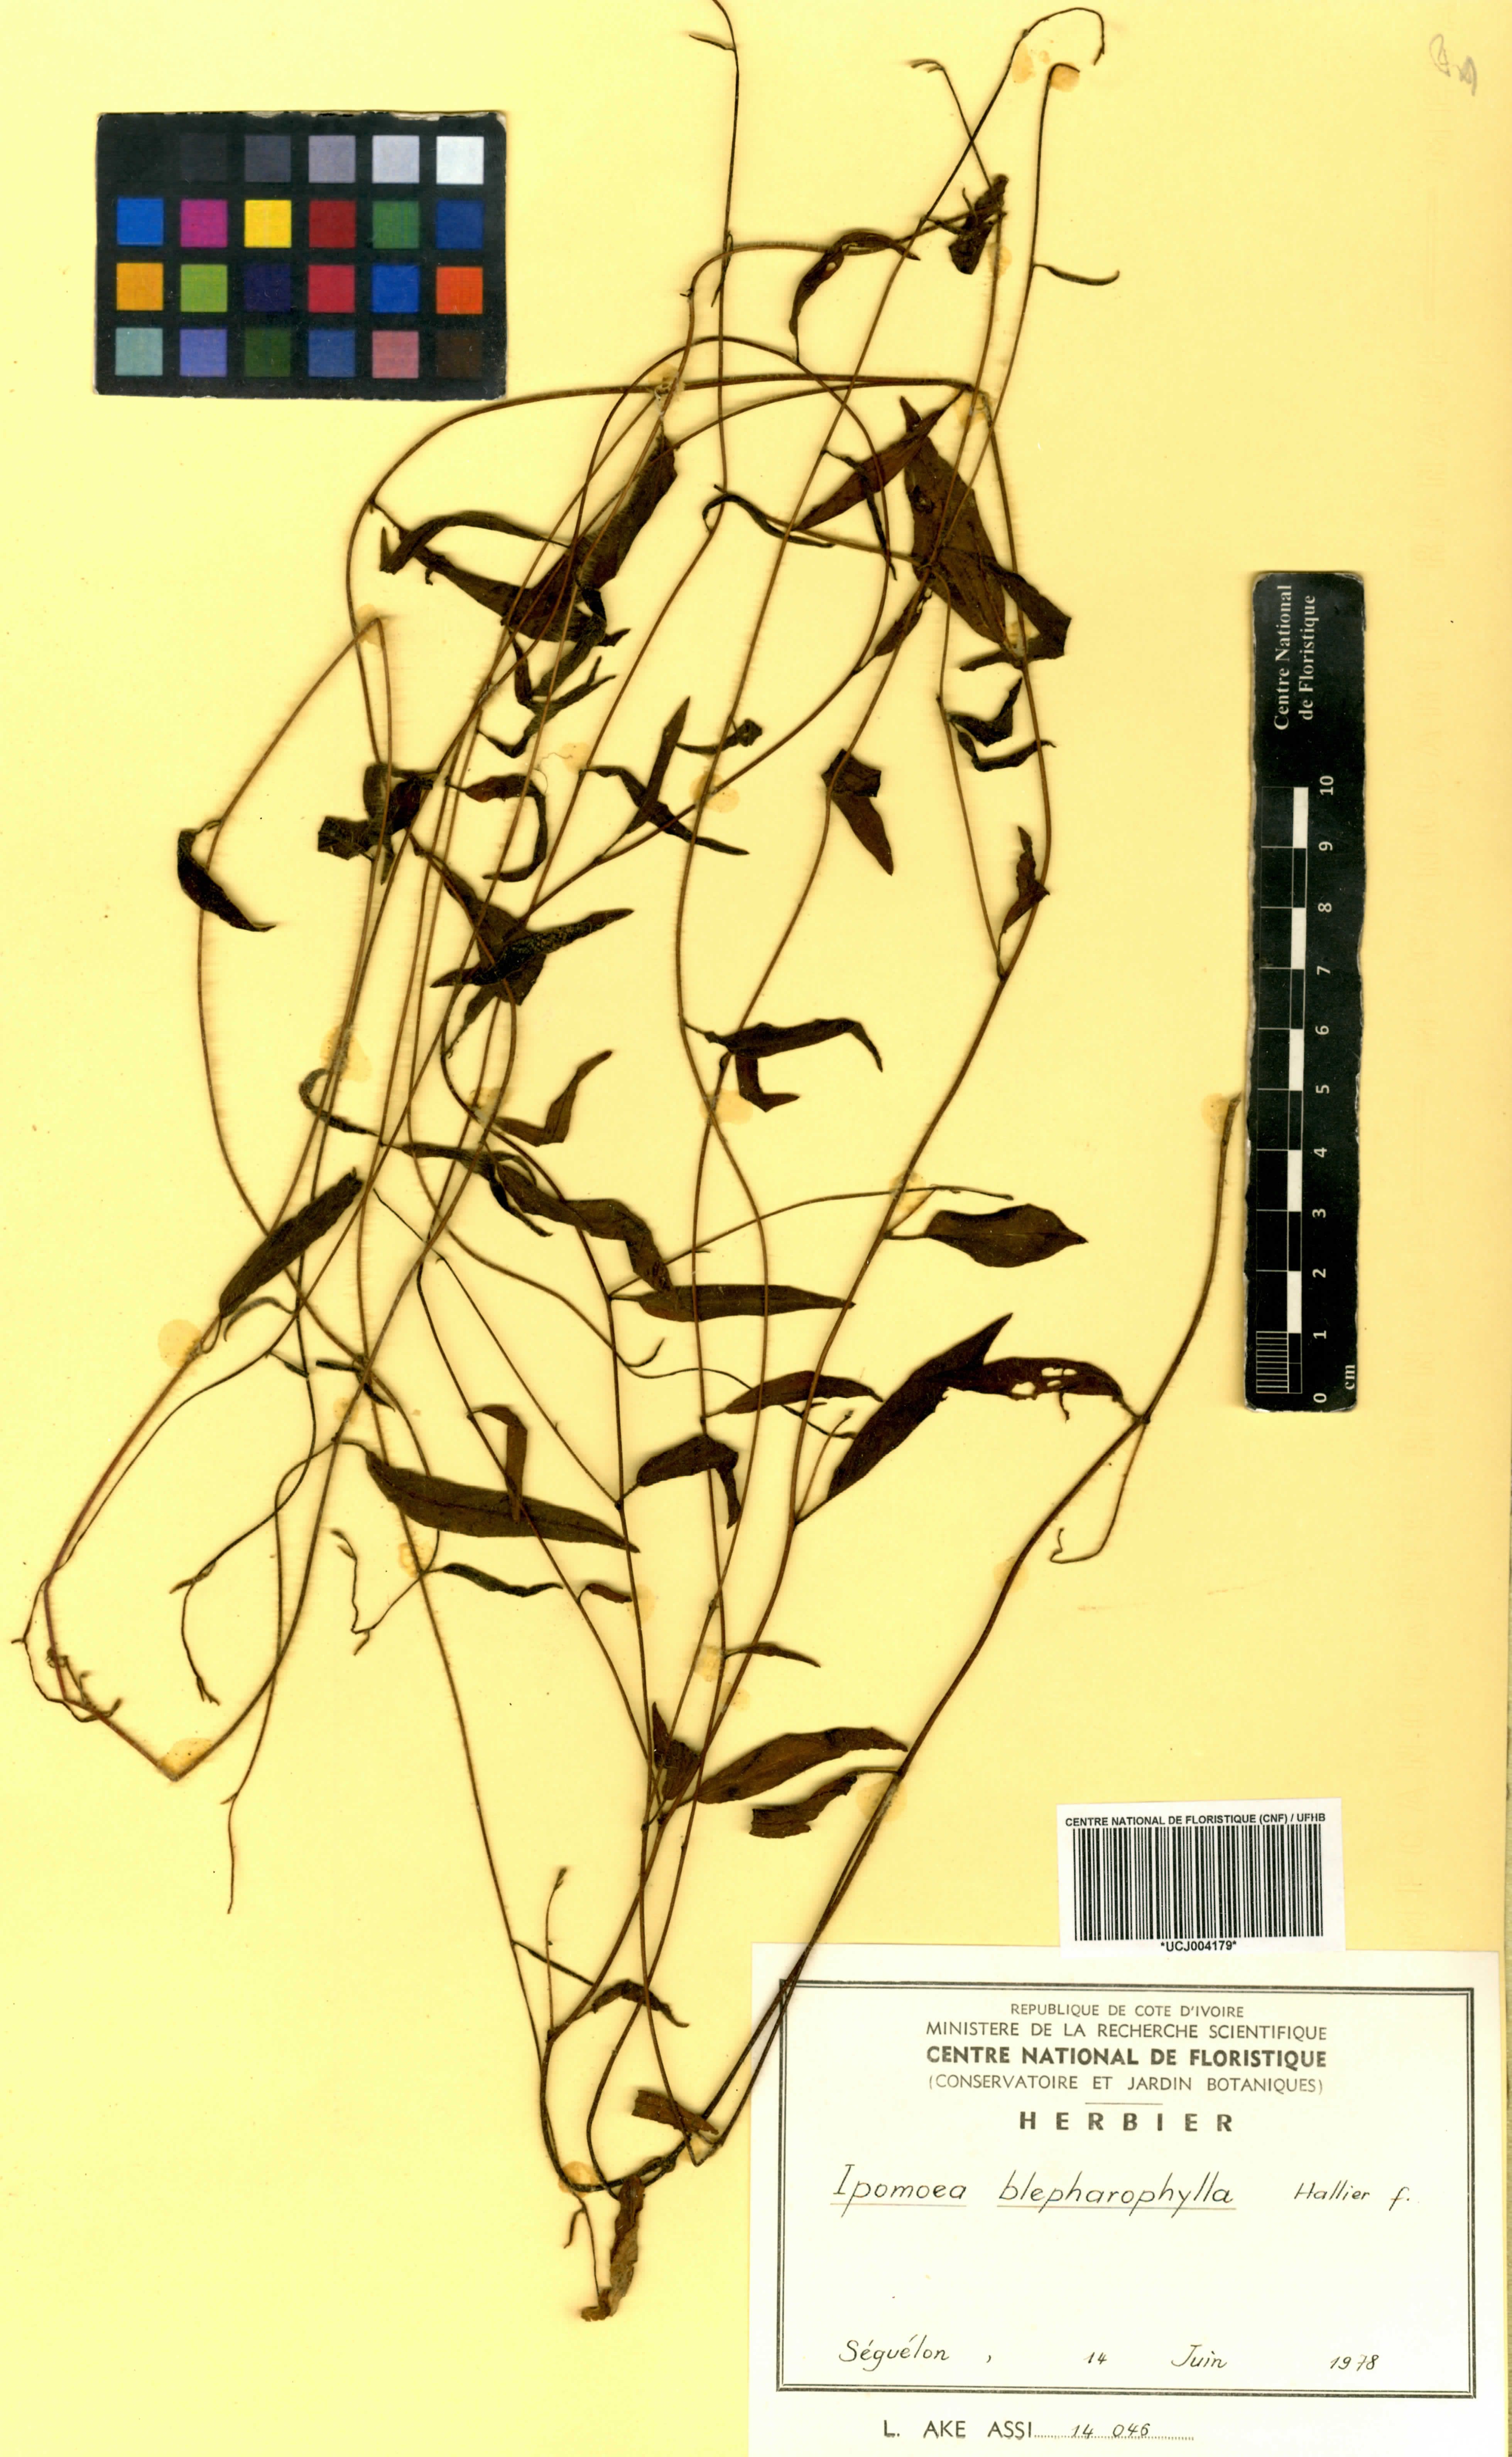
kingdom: Plantae
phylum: Tracheophyta
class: Magnoliopsida
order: Solanales
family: Convolvulaceae
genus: Ipomoea
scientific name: Ipomoea blepharophylla
